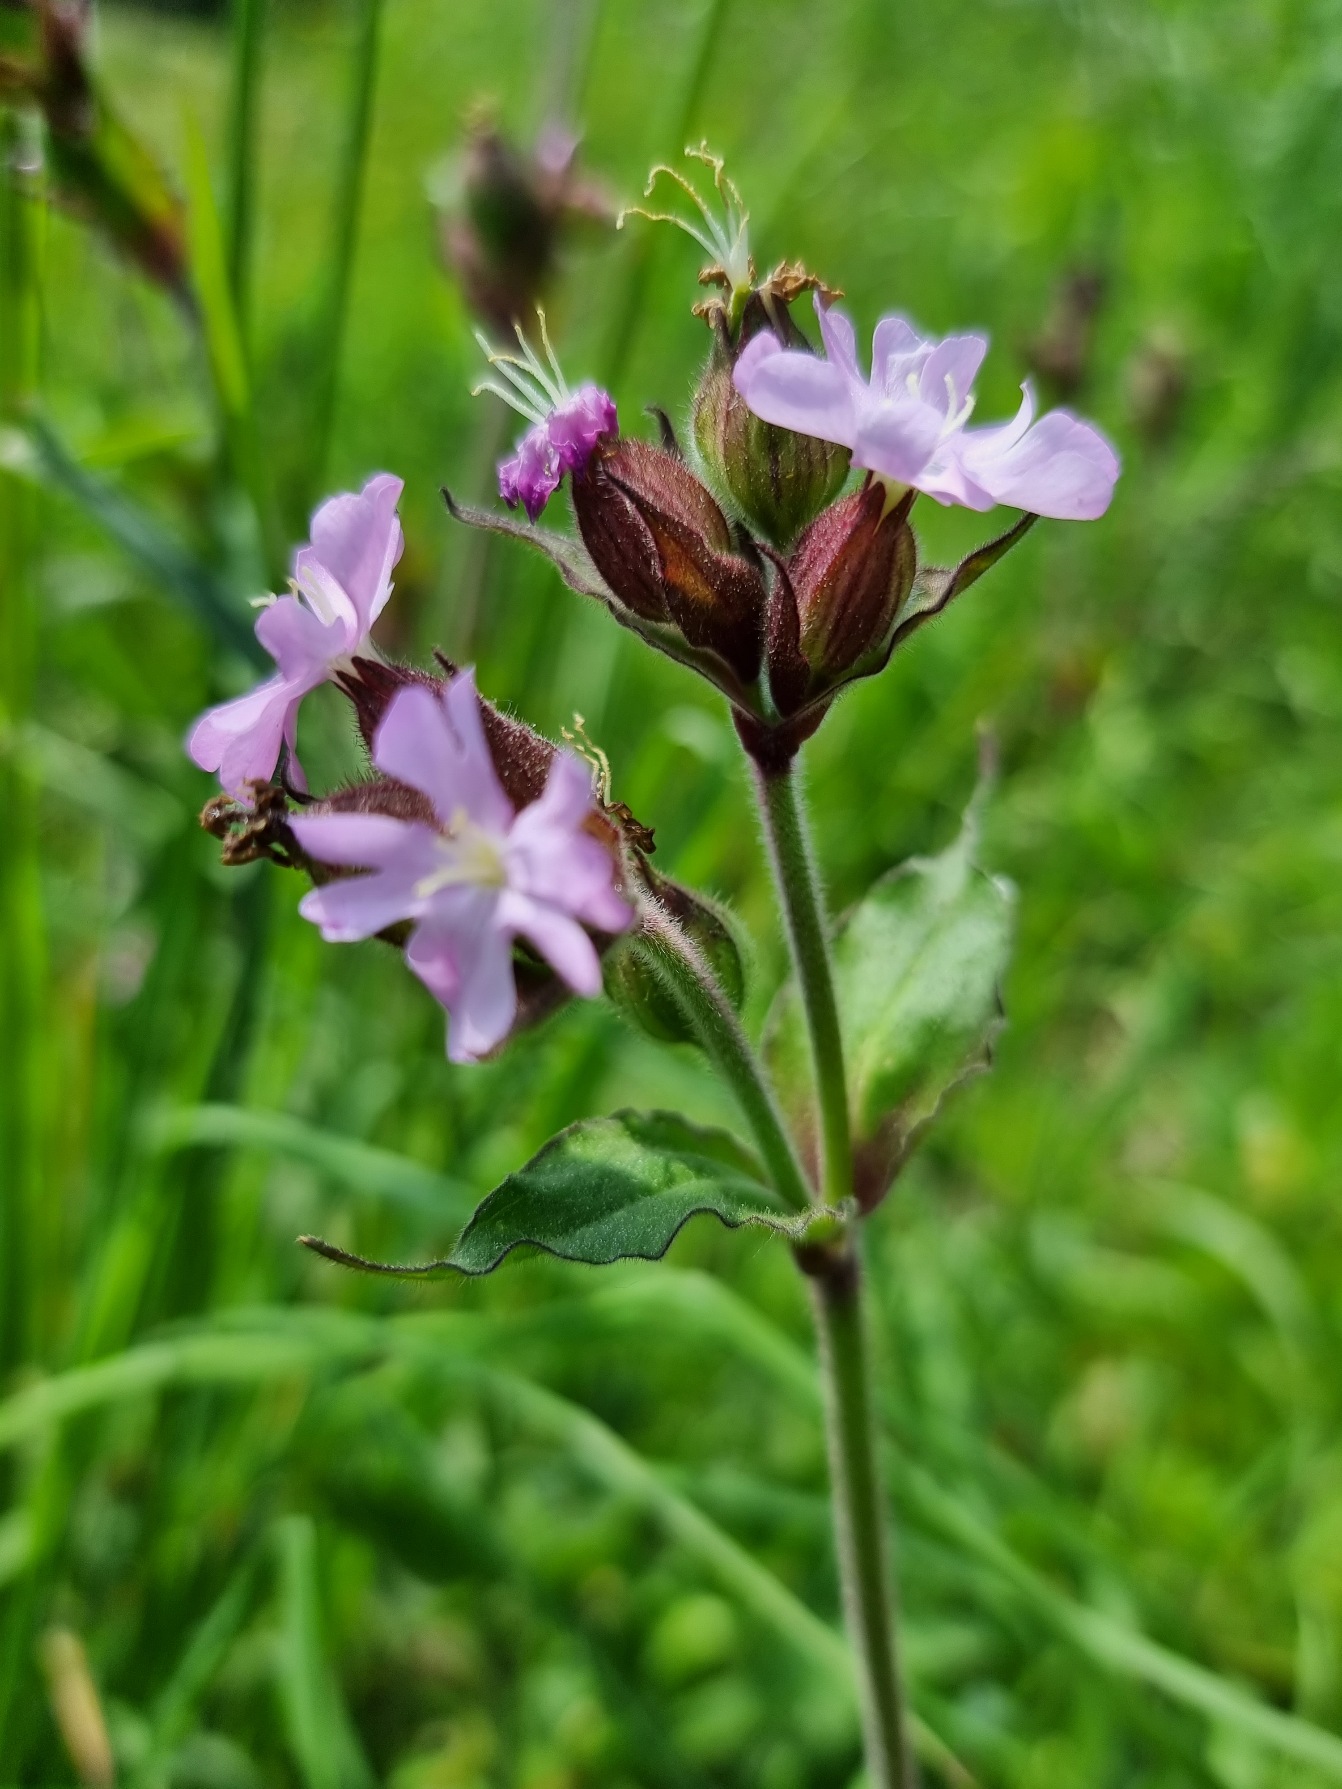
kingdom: Plantae
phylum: Tracheophyta
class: Magnoliopsida
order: Caryophyllales
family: Caryophyllaceae
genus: Silene
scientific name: Silene dioica
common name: Dagpragtstjerne
